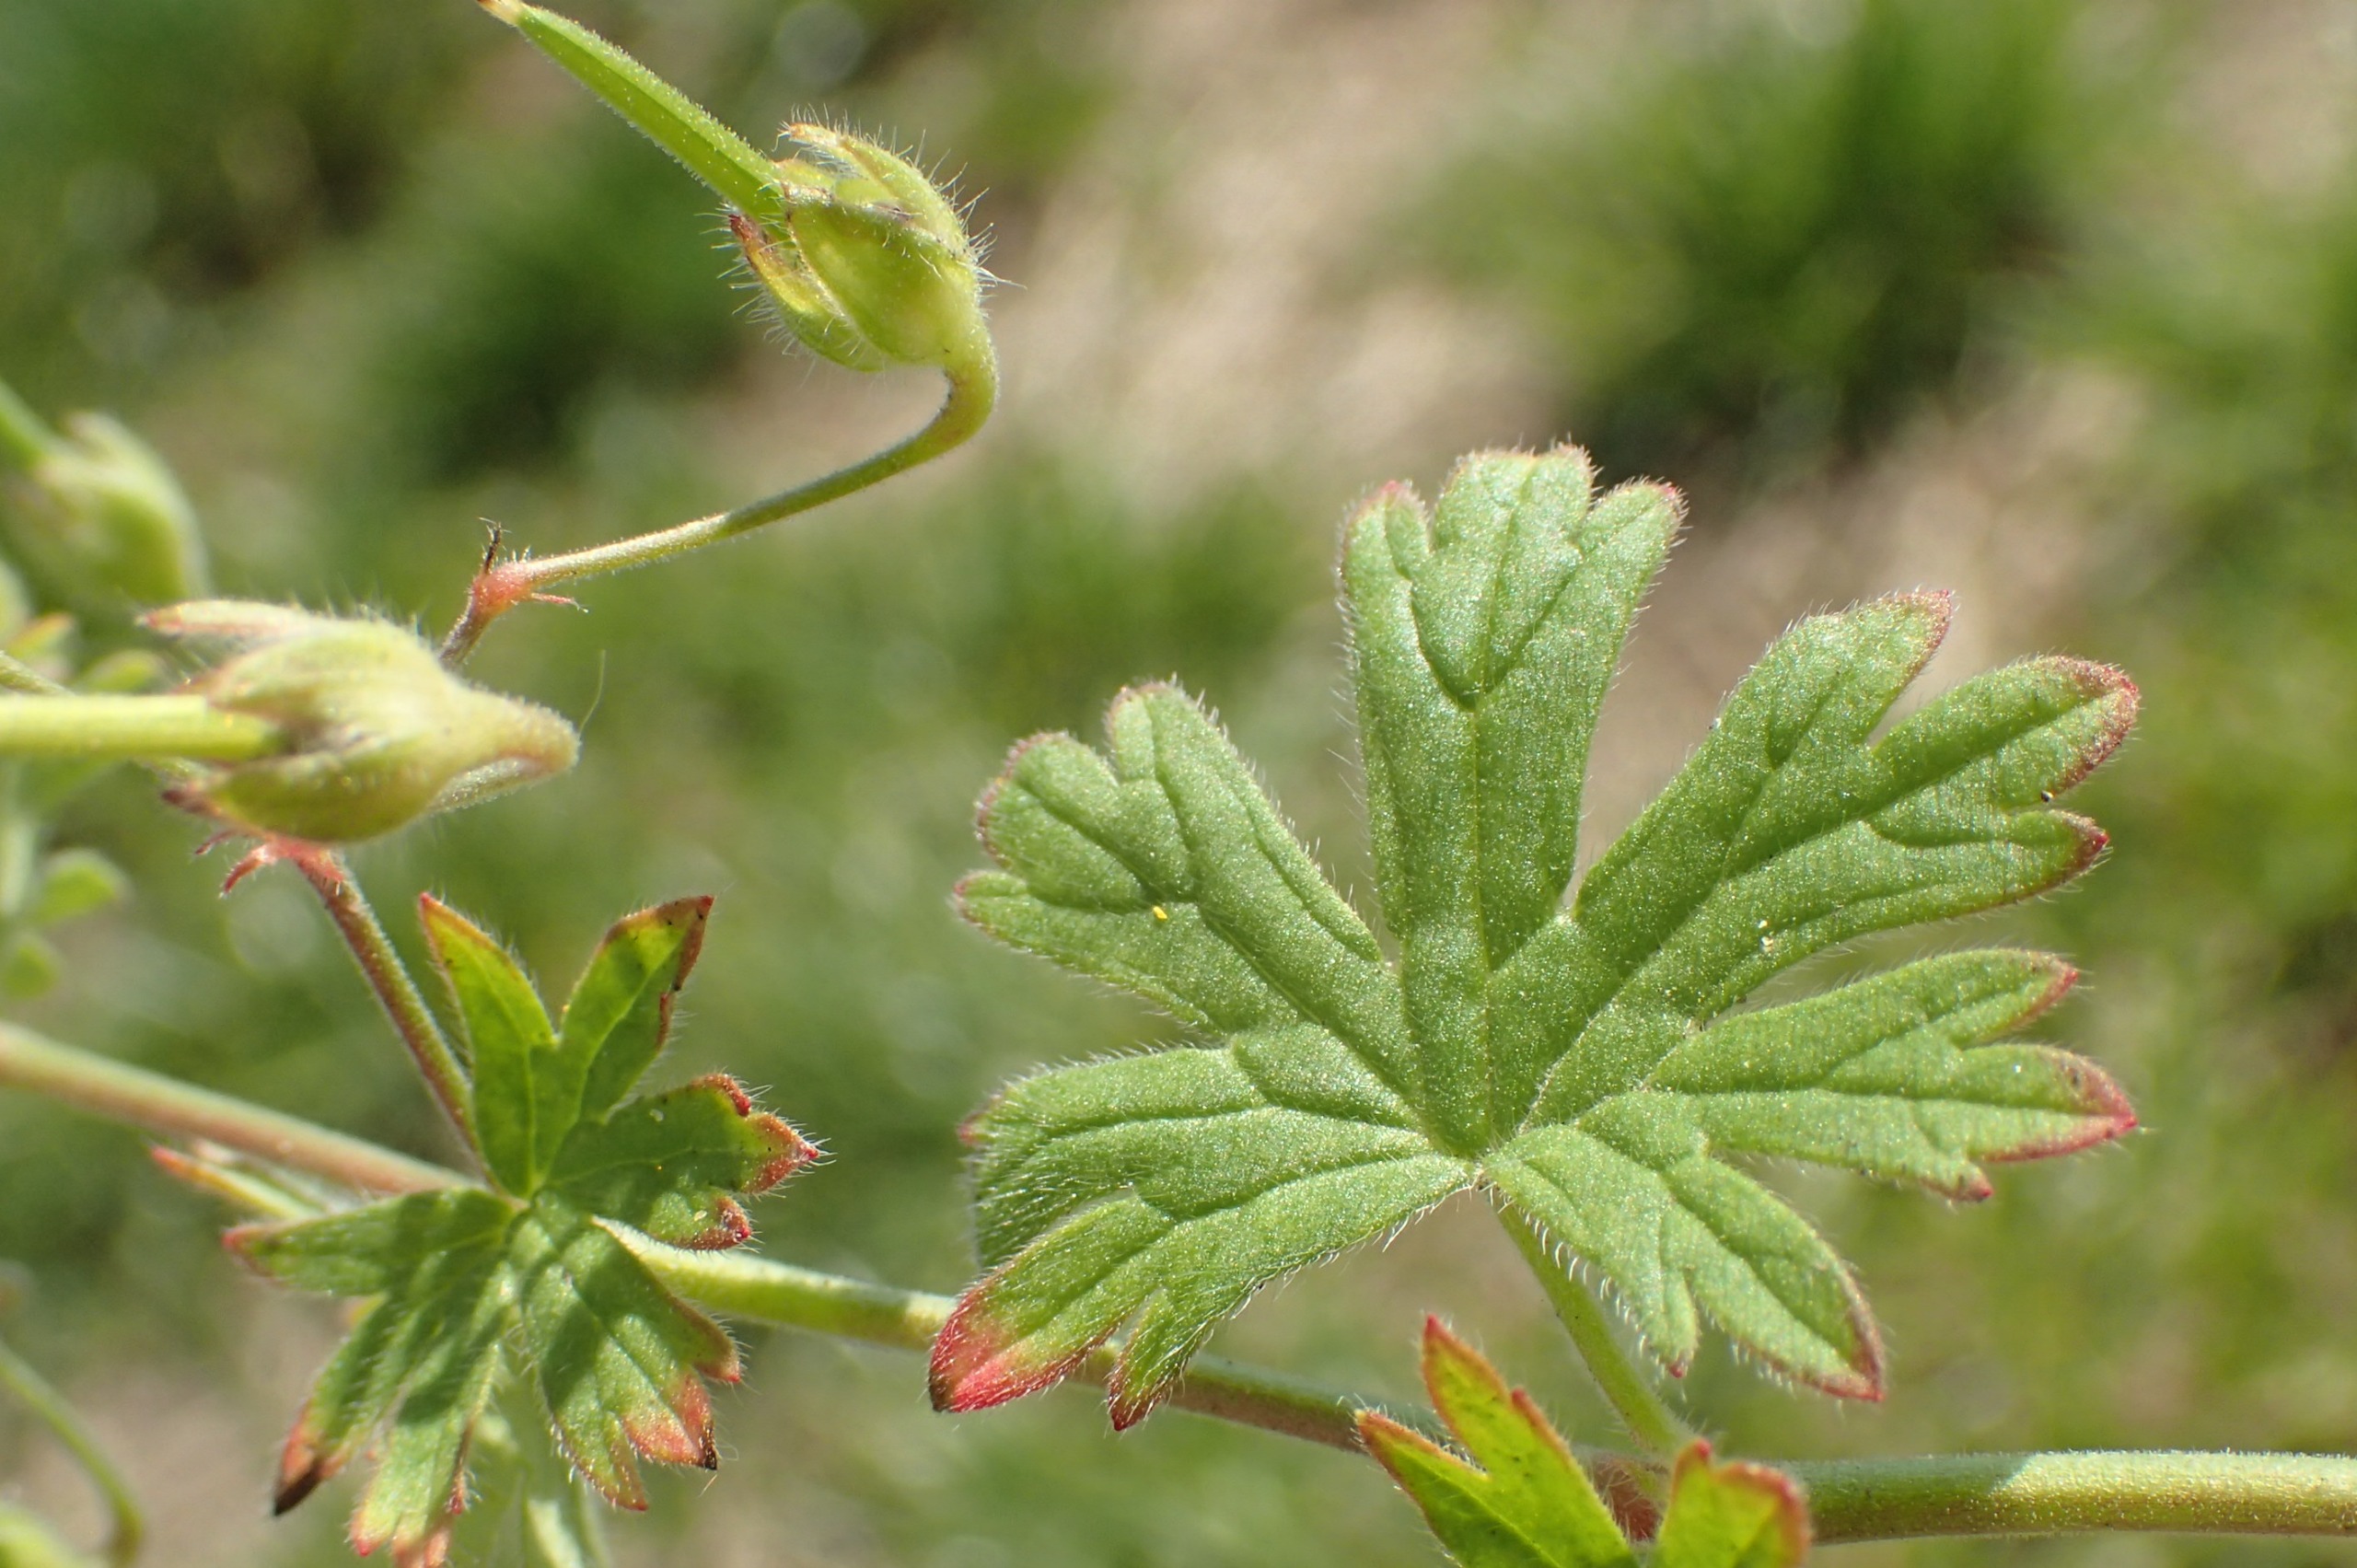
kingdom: Plantae
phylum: Tracheophyta
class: Magnoliopsida
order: Geraniales
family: Geraniaceae
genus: Geranium
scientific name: Geranium pusillum
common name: Liden storkenæb
